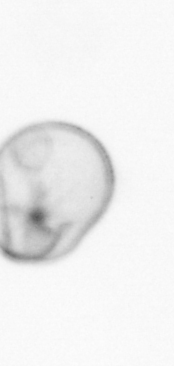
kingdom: Chromista
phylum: Myzozoa
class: Dinophyceae
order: Noctilucales
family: Noctilucaceae
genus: Noctiluca
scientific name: Noctiluca scintillans
